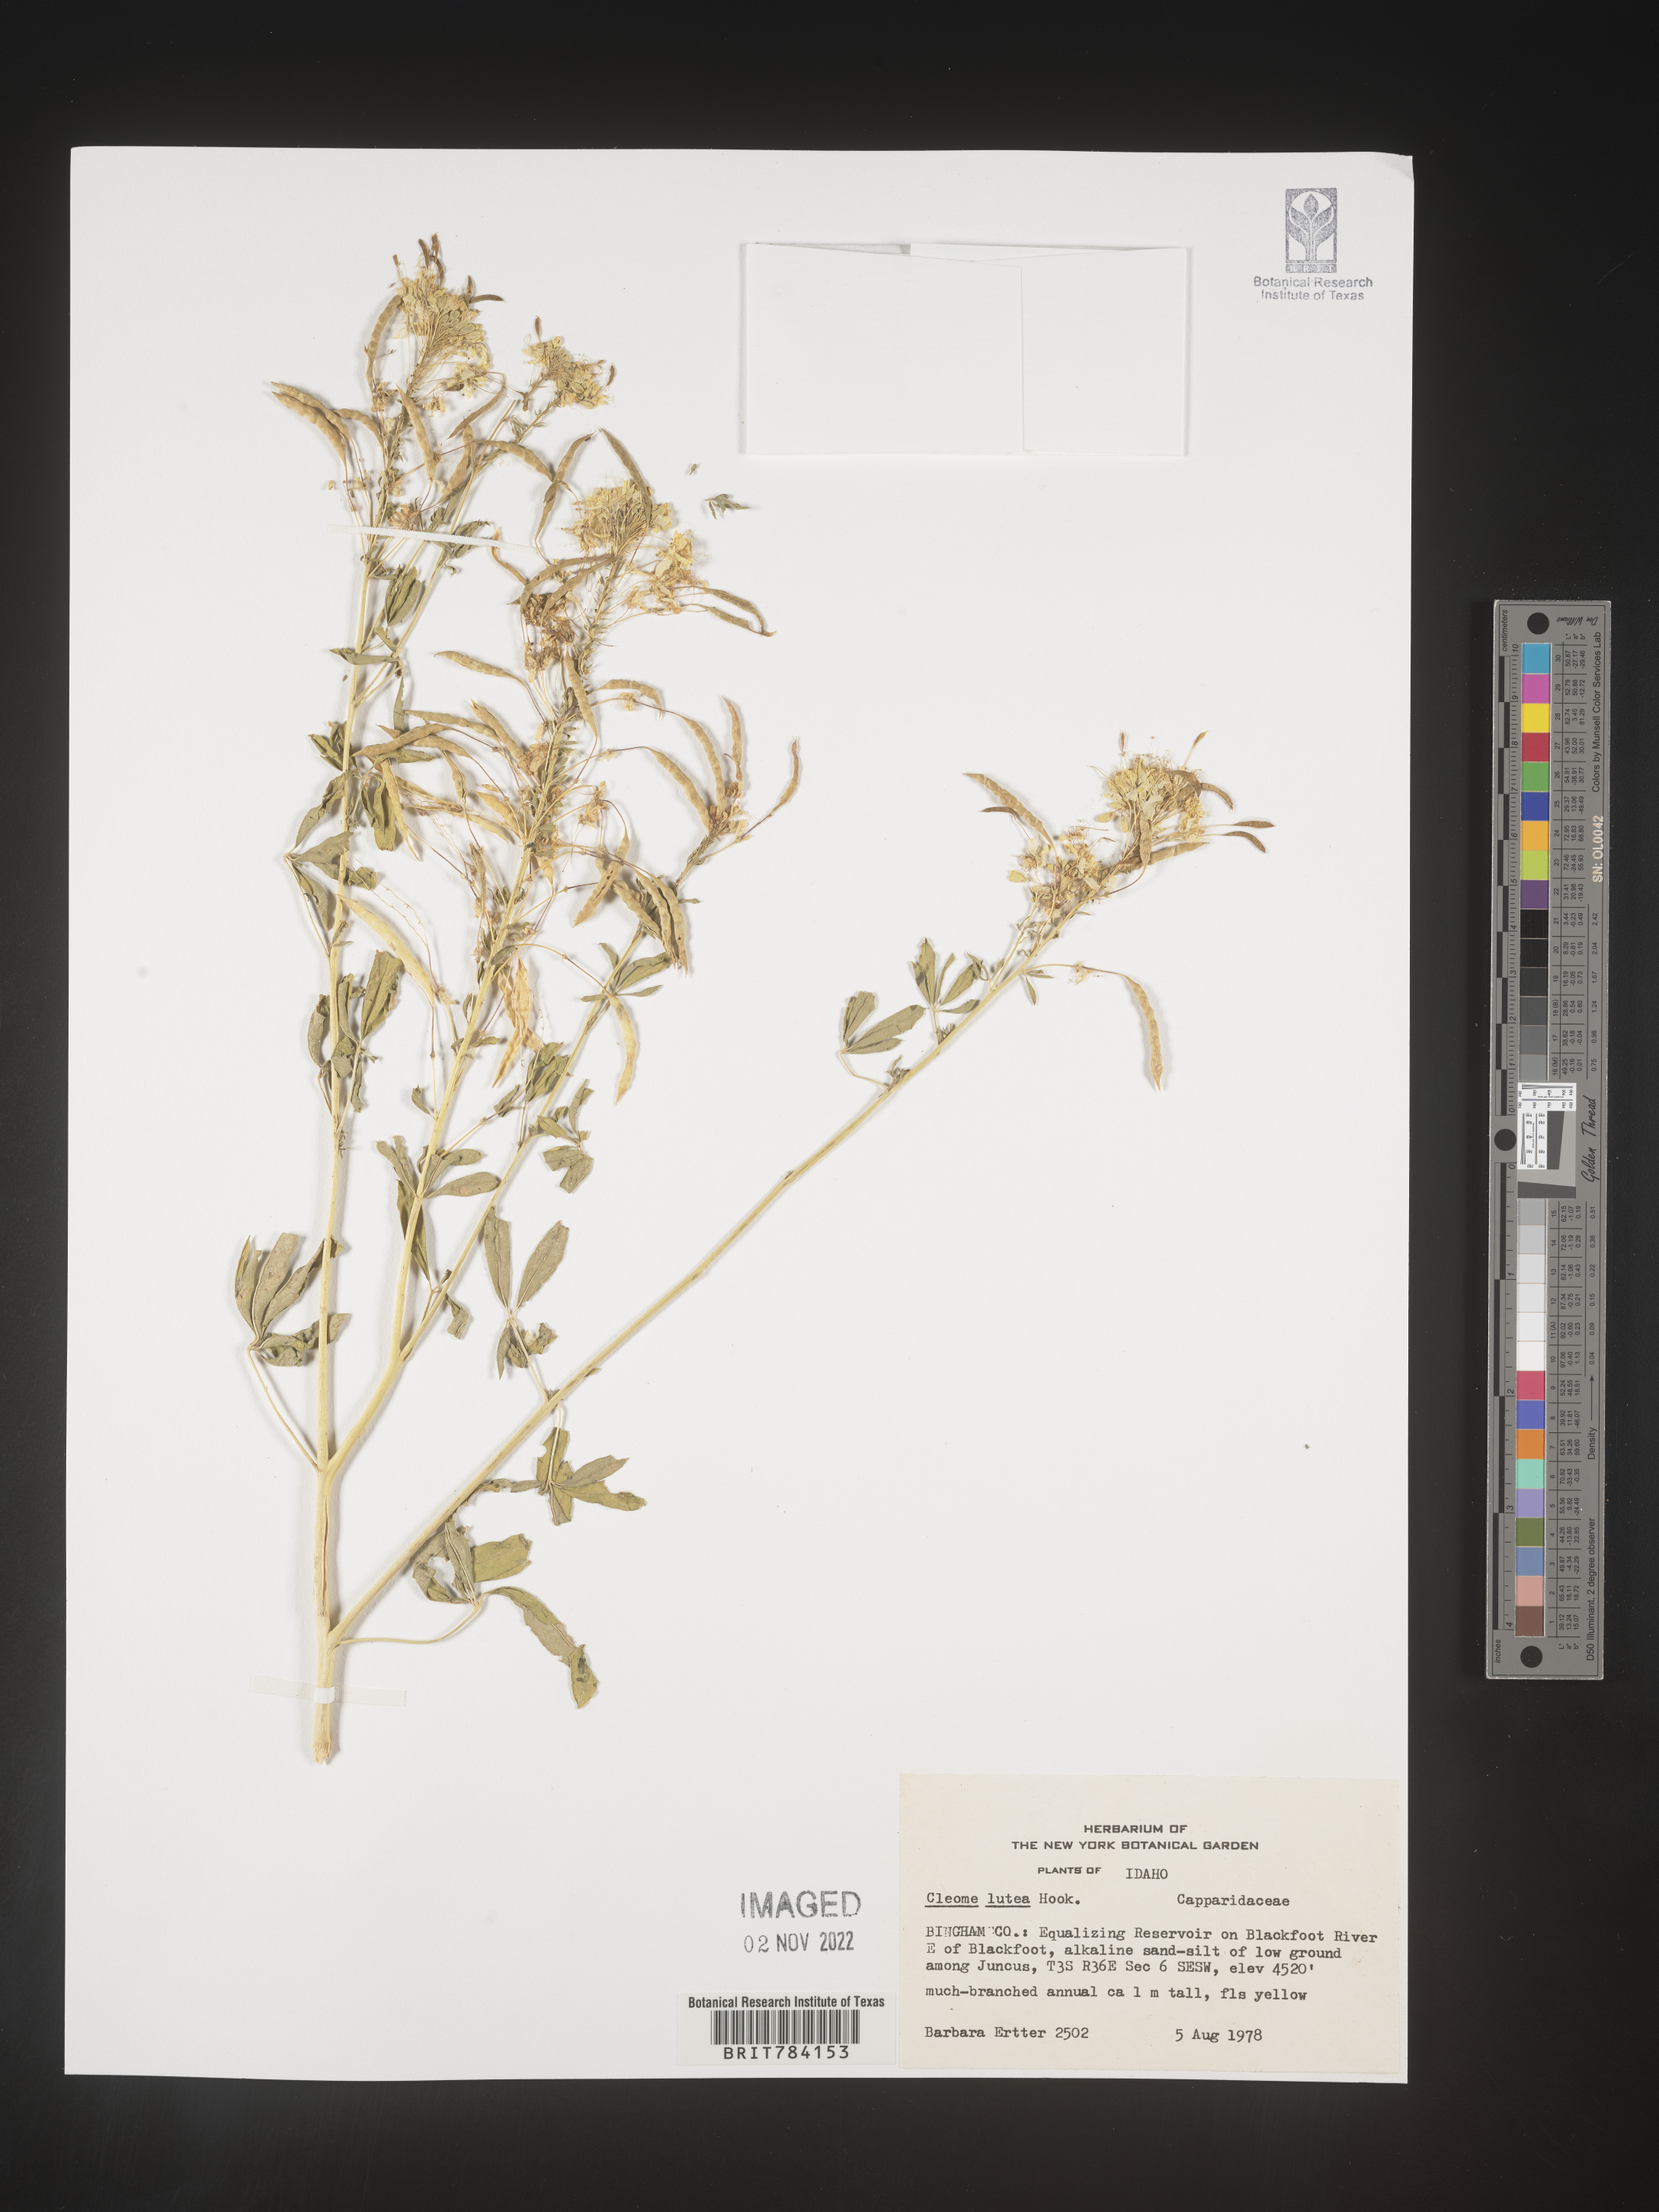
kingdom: Plantae
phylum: Tracheophyta
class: Magnoliopsida
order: Brassicales
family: Cleomaceae
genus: Cleomella
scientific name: Cleomella lutea
